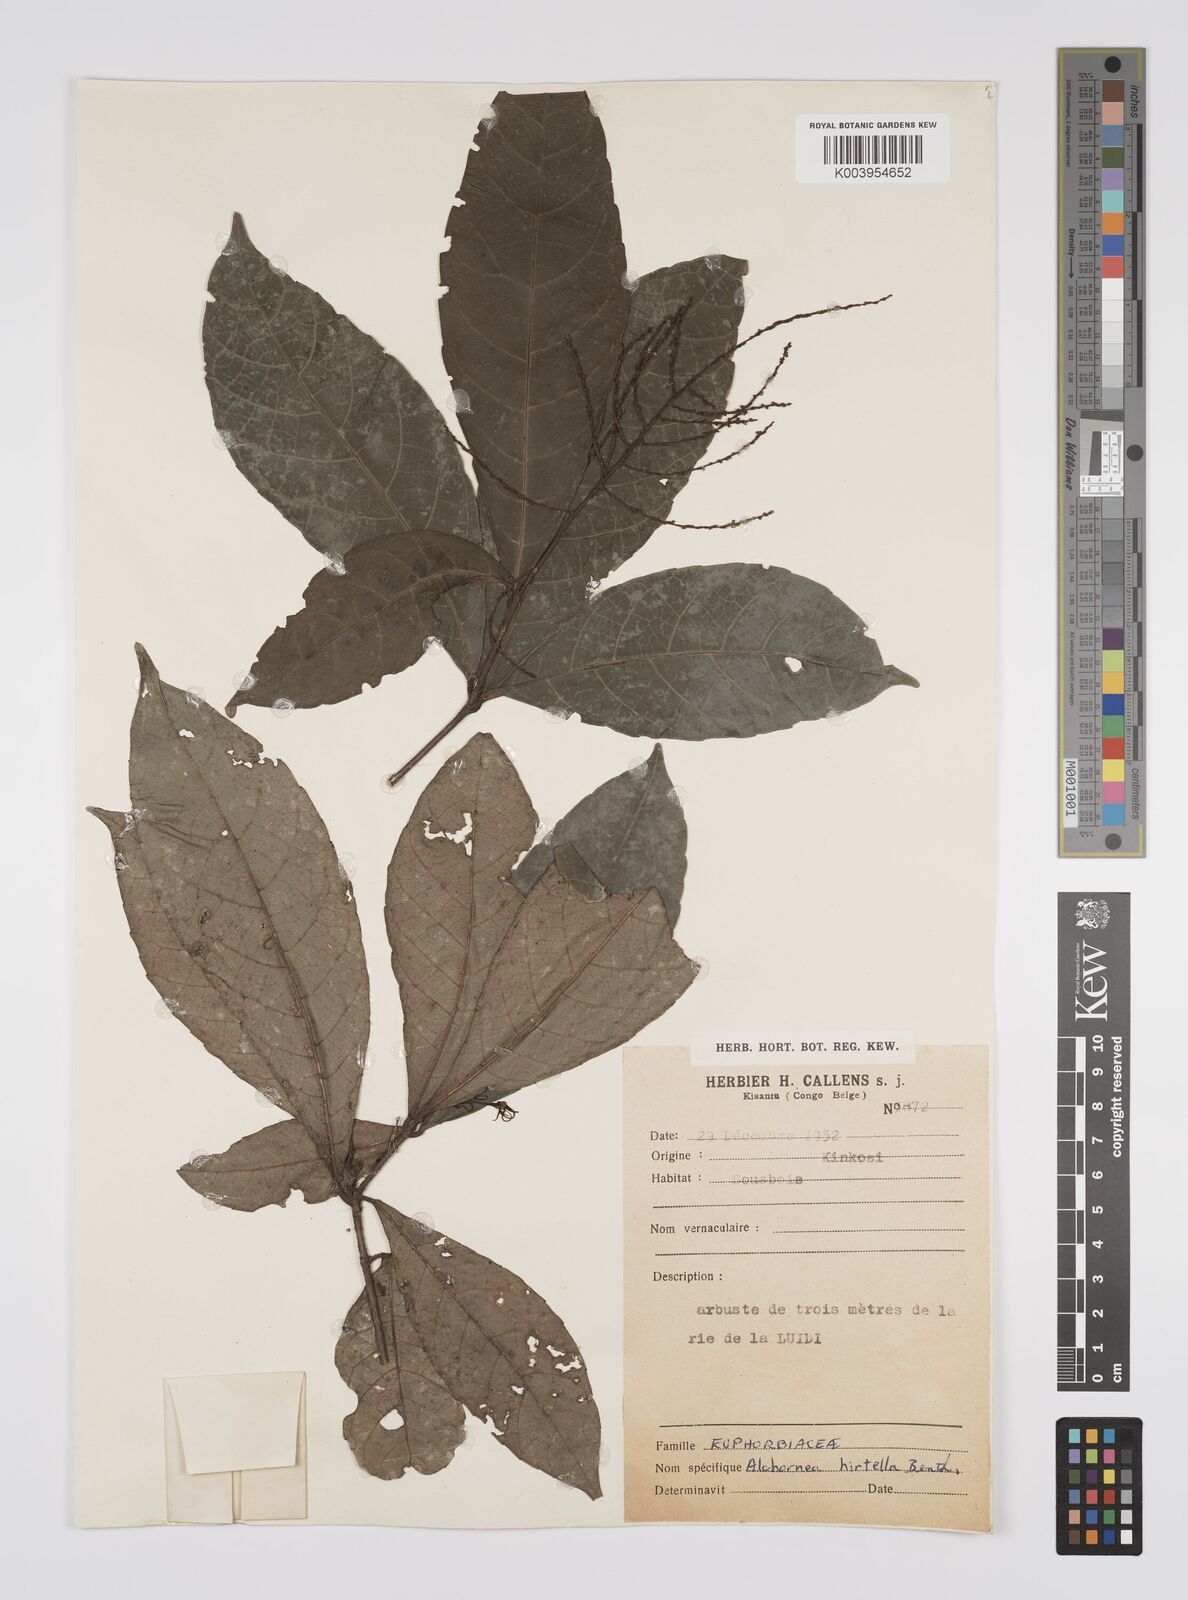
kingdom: Plantae
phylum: Tracheophyta
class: Magnoliopsida
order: Malpighiales
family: Euphorbiaceae
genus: Alchornea
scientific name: Alchornea hirtella
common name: Forest bead-string
